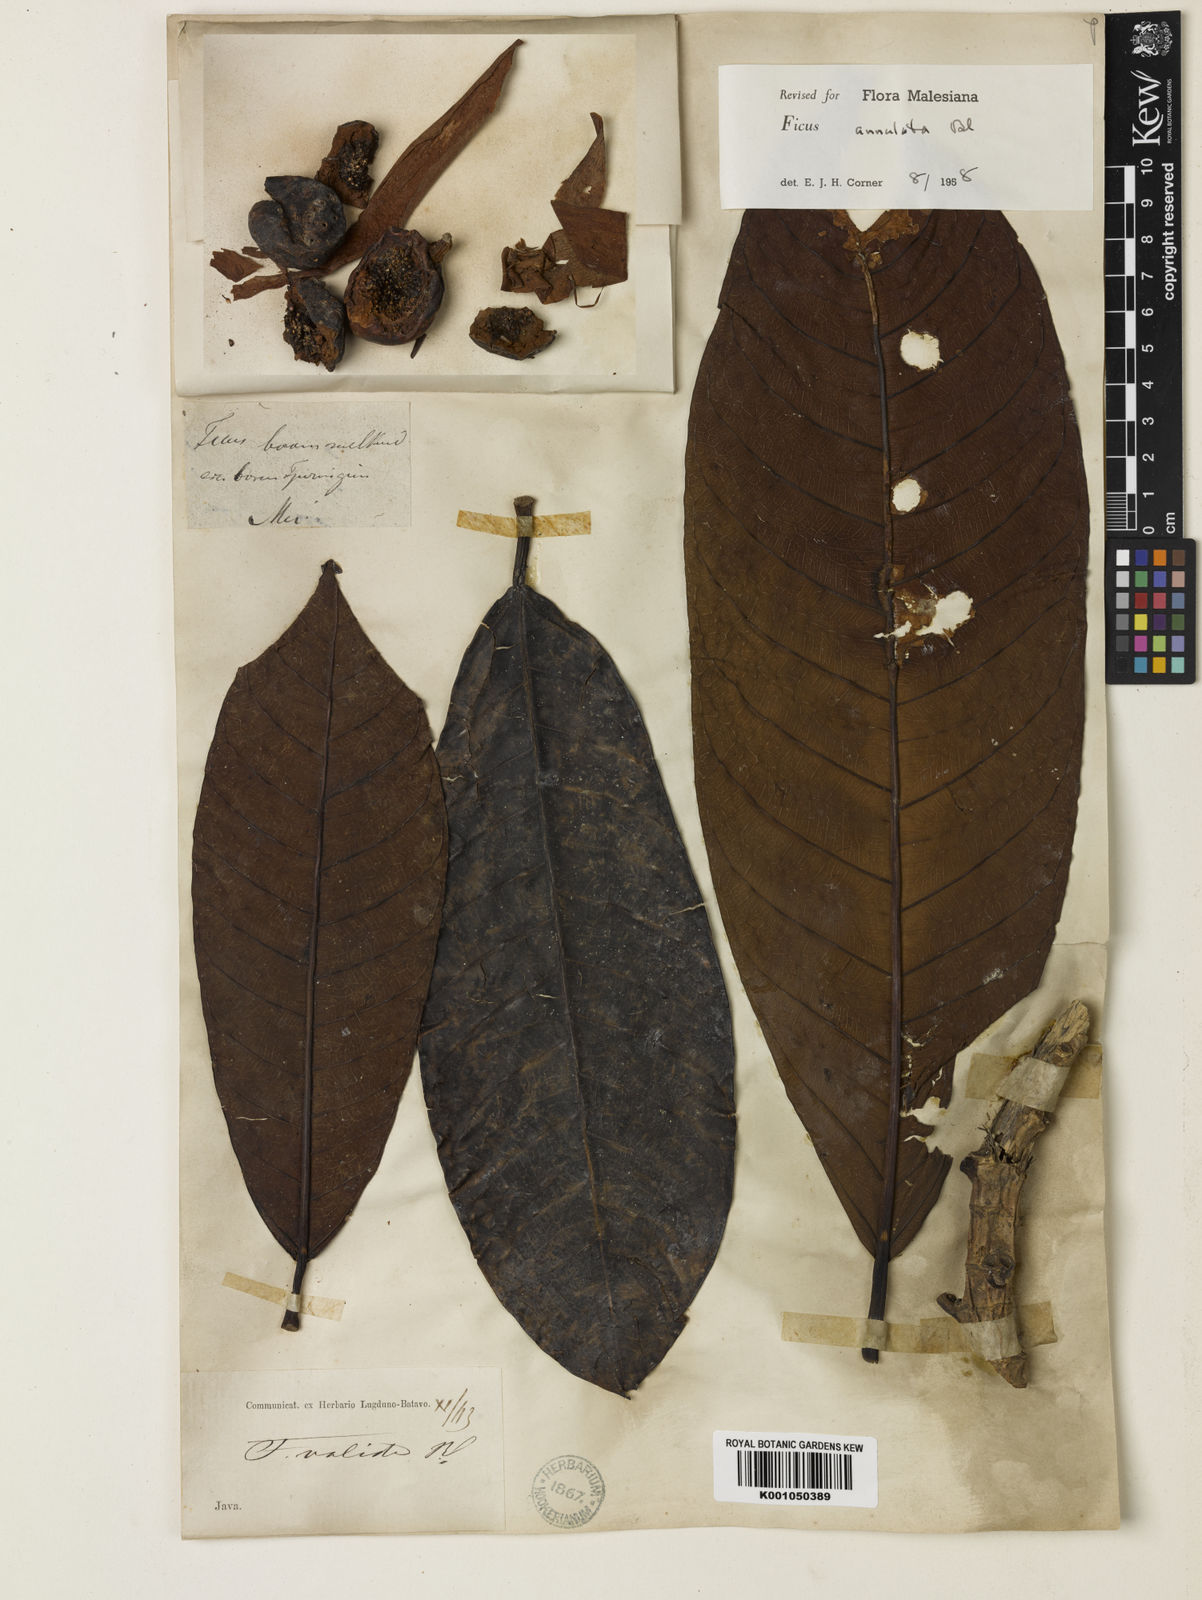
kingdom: Plantae
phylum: Tracheophyta
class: Magnoliopsida
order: Rosales
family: Moraceae
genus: Ficus
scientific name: Ficus annulata
